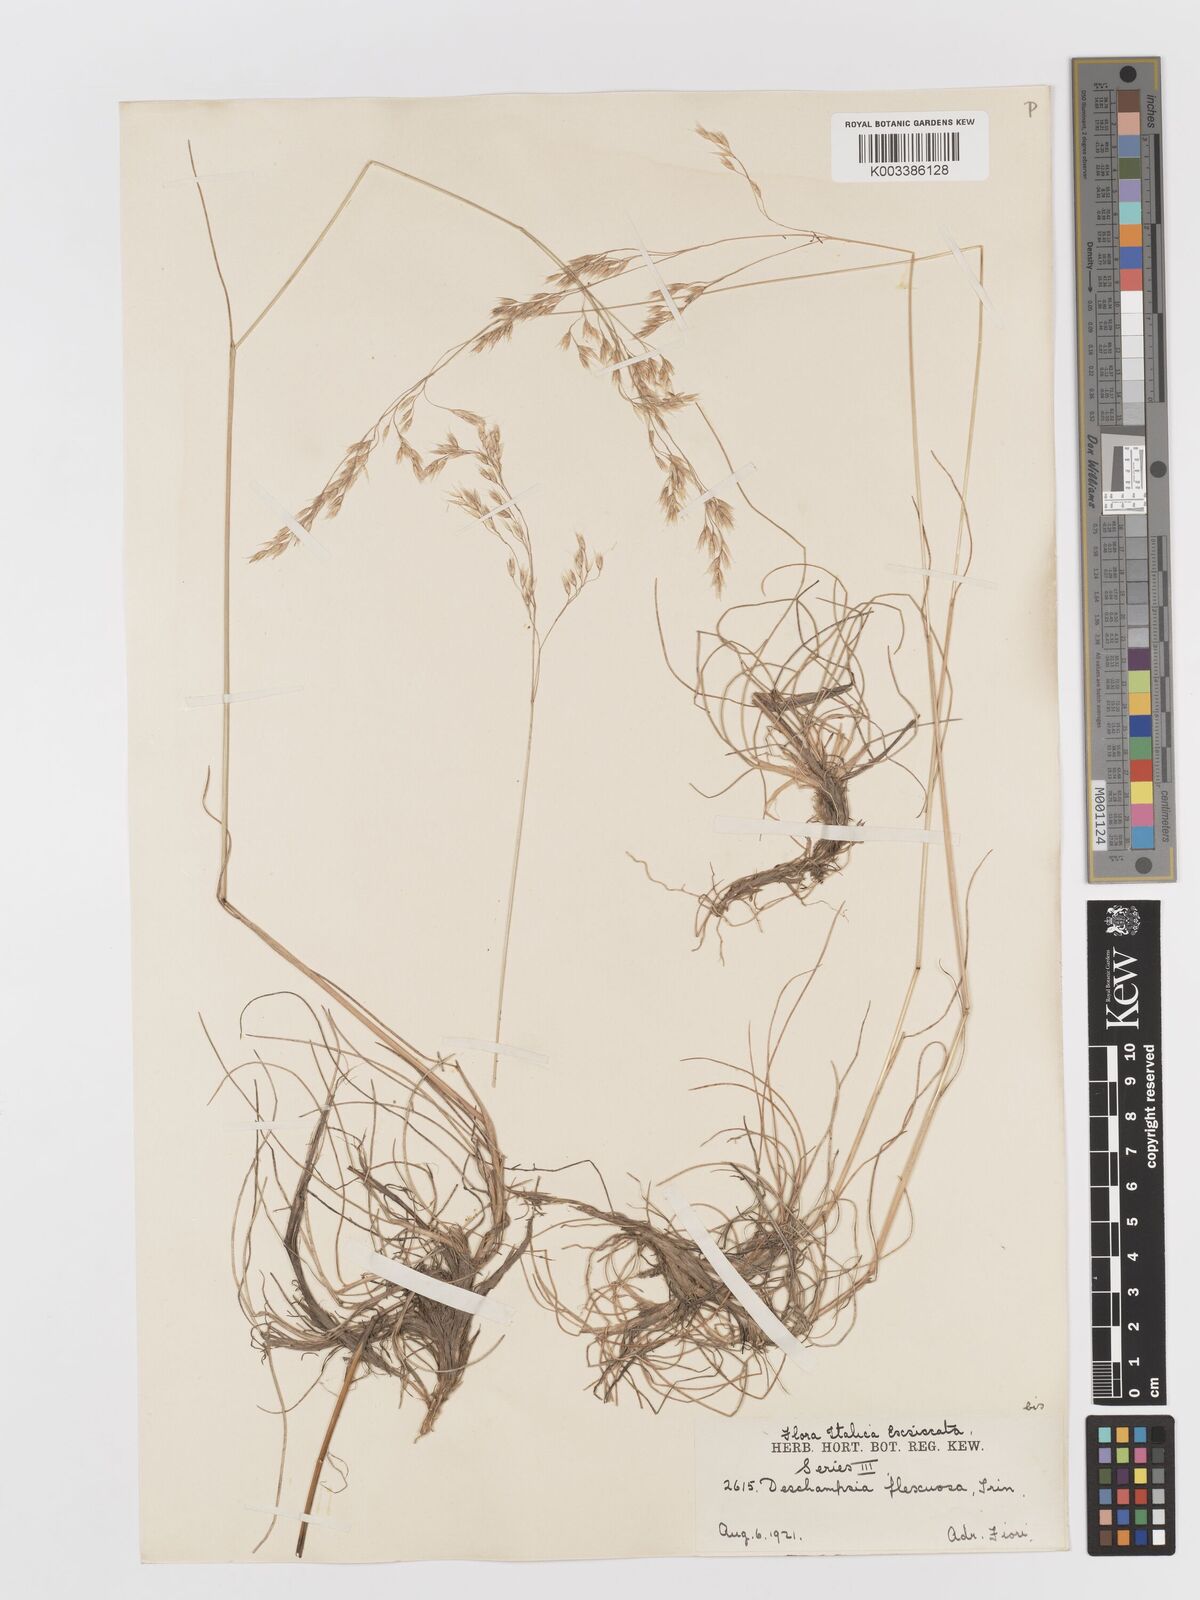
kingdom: Plantae
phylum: Tracheophyta
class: Liliopsida
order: Poales
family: Poaceae
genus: Avenella
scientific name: Avenella flexuosa
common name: Wavy hairgrass
